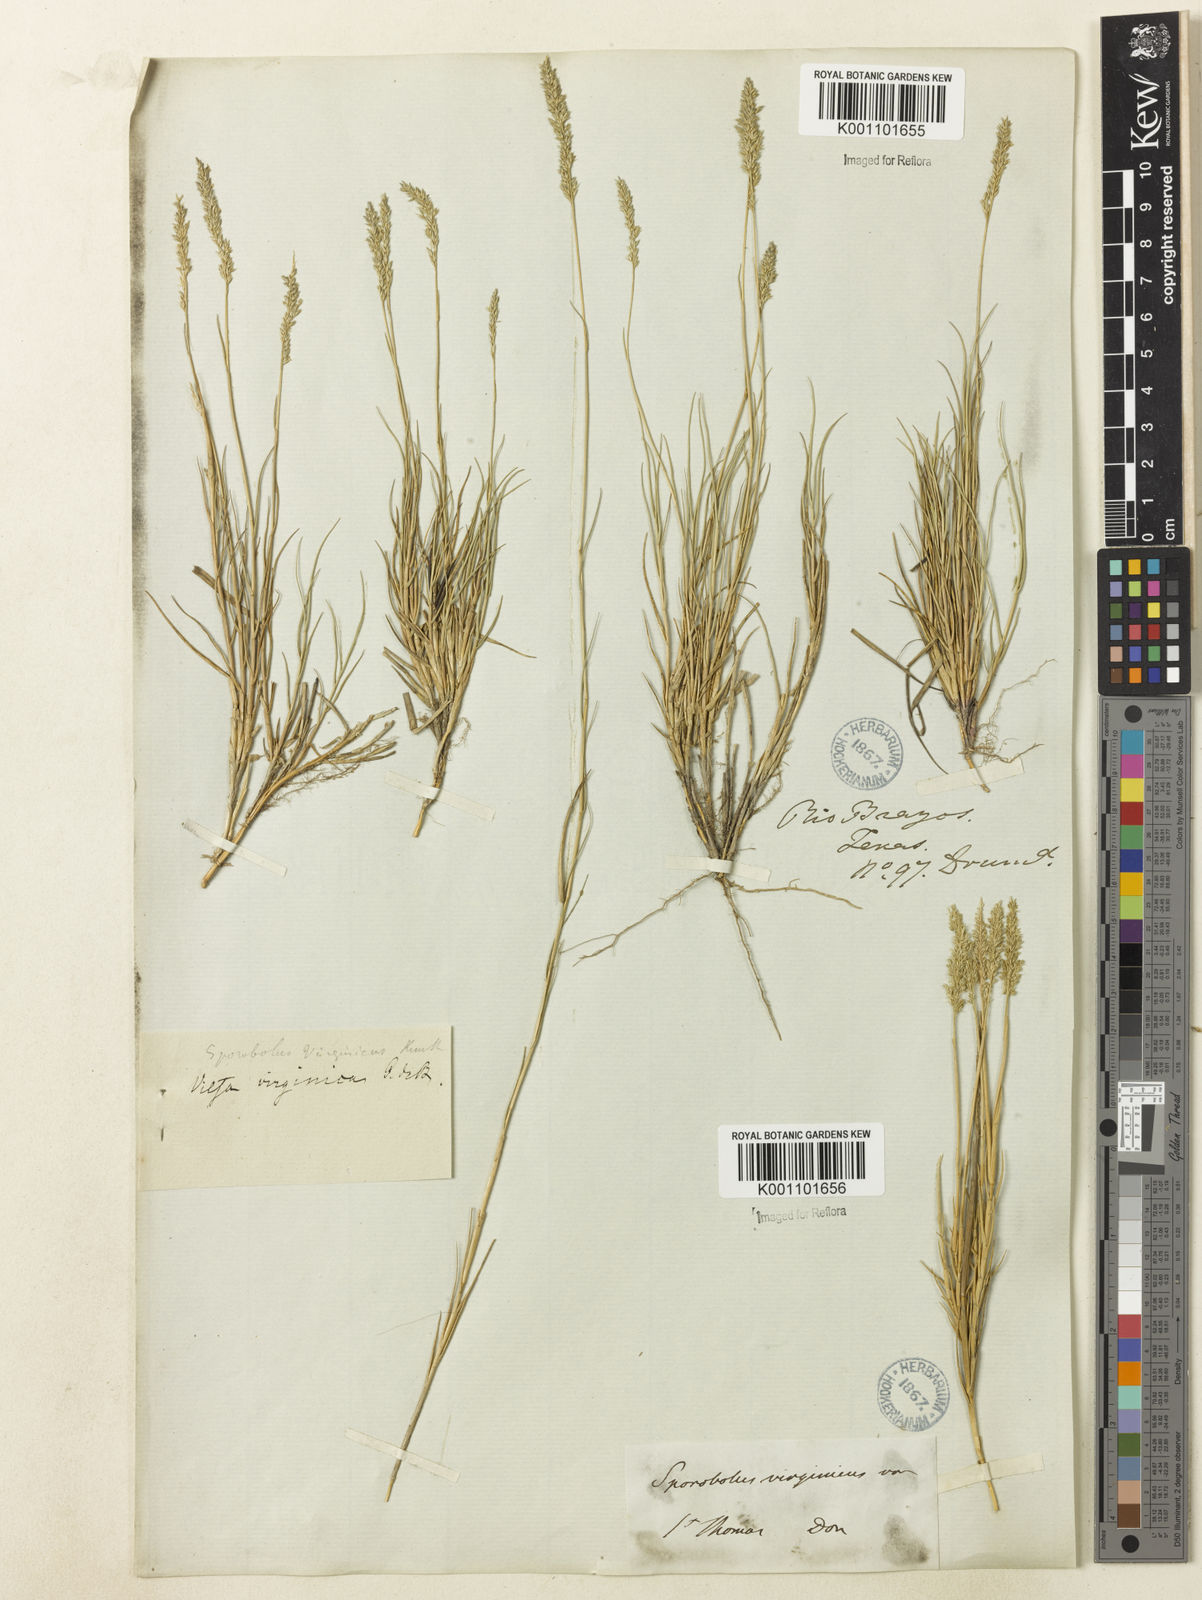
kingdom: Plantae
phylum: Tracheophyta
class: Liliopsida
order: Poales
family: Poaceae
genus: Sporobolus
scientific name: Sporobolus virginicus
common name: Beach dropseed
